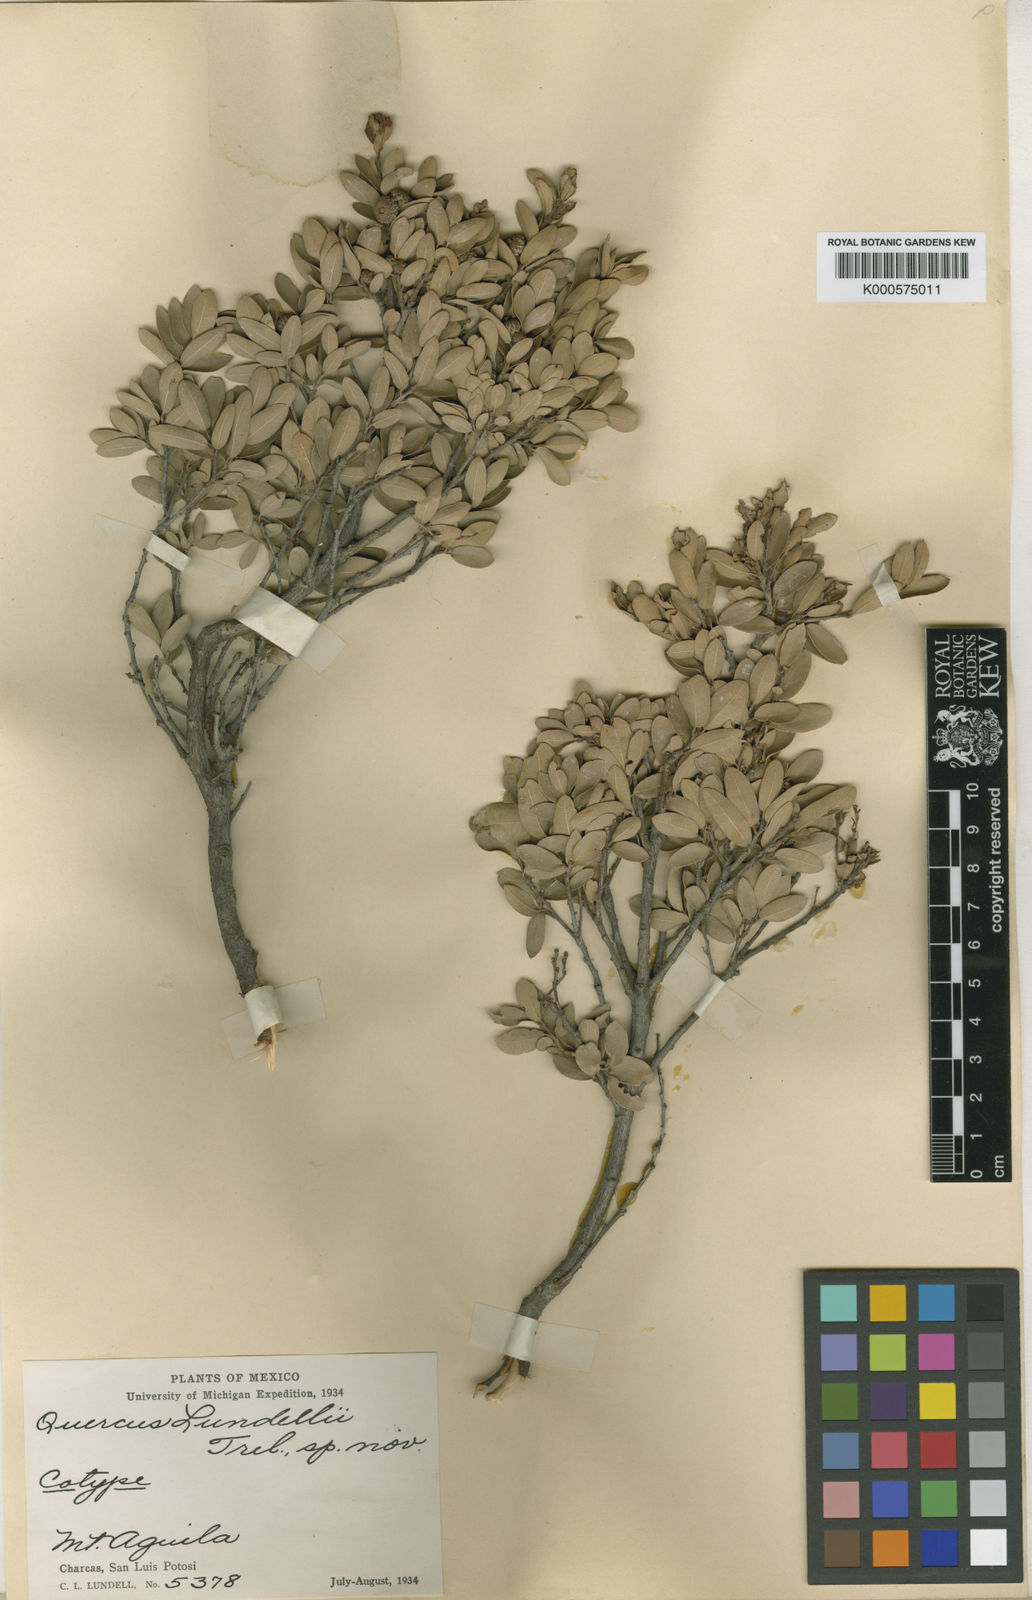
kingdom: Plantae
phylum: Tracheophyta
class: Magnoliopsida
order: Fagales
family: Fagaceae
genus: Quercus
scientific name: Quercus
